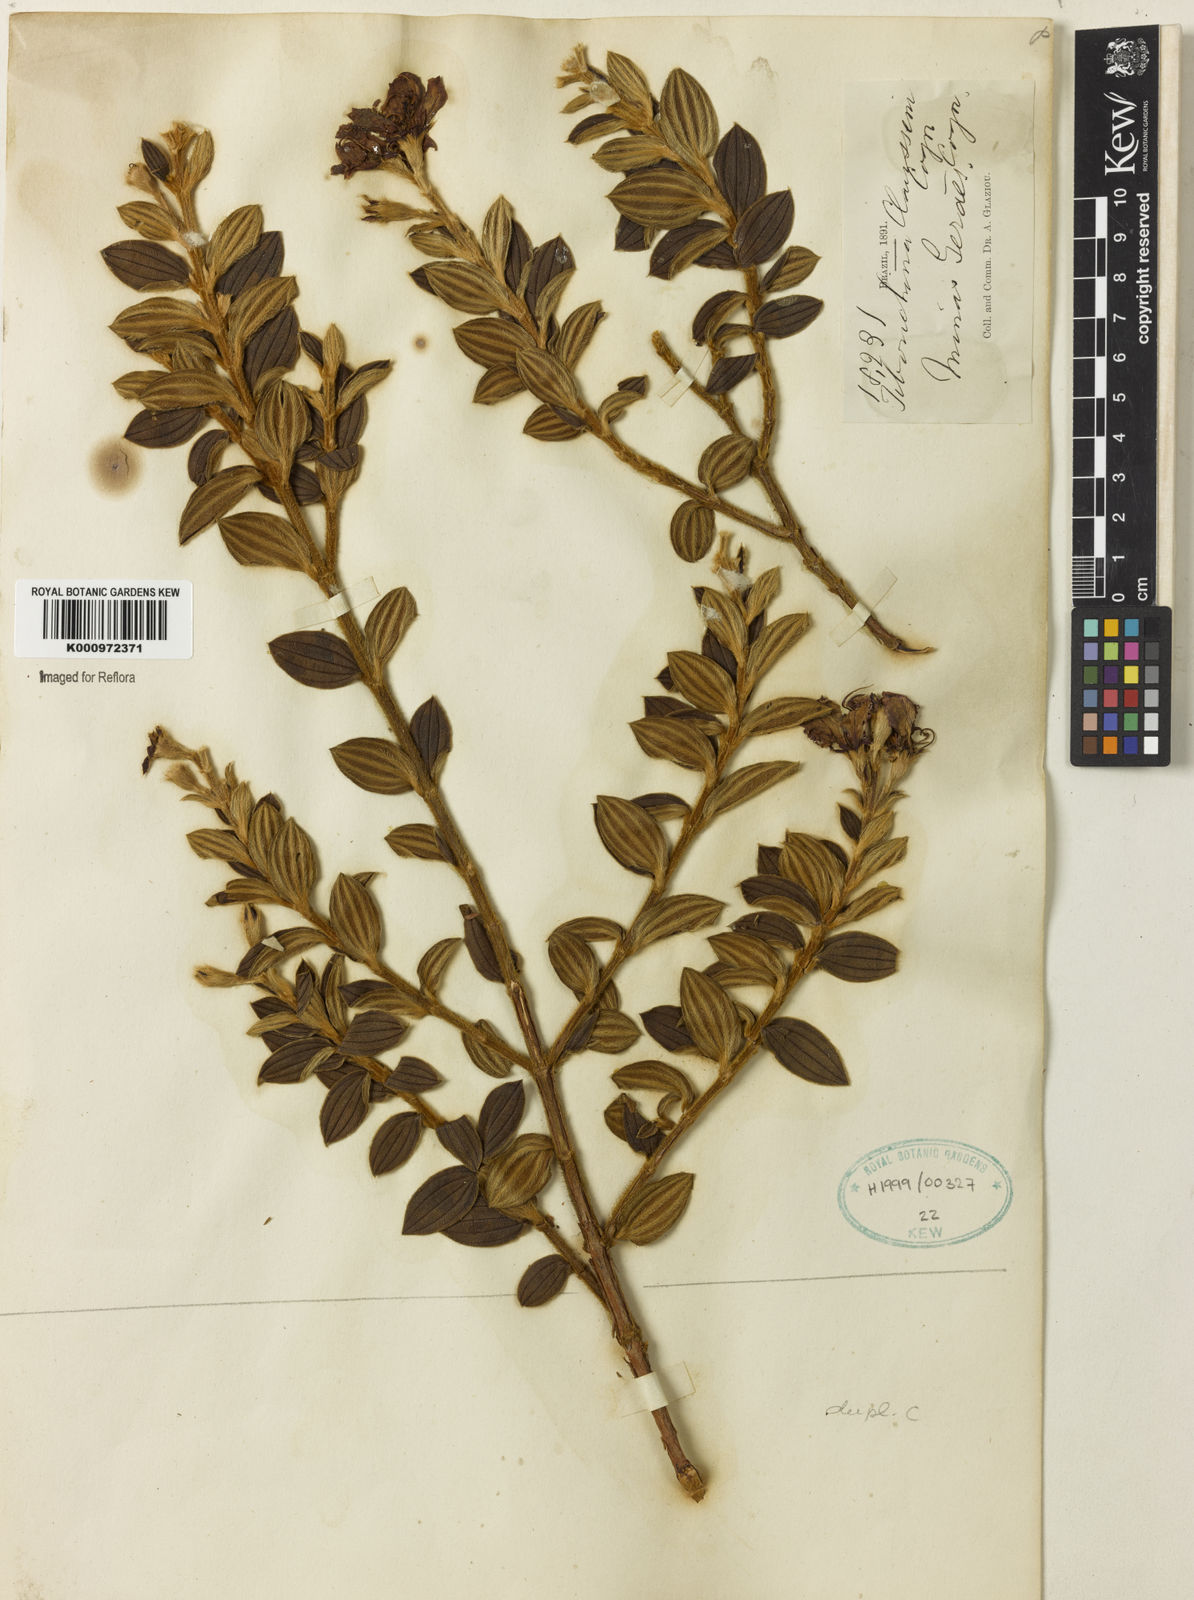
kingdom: Plantae
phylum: Tracheophyta
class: Magnoliopsida
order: Myrtales
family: Melastomataceae
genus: Pleroma
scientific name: Pleroma claussenii
